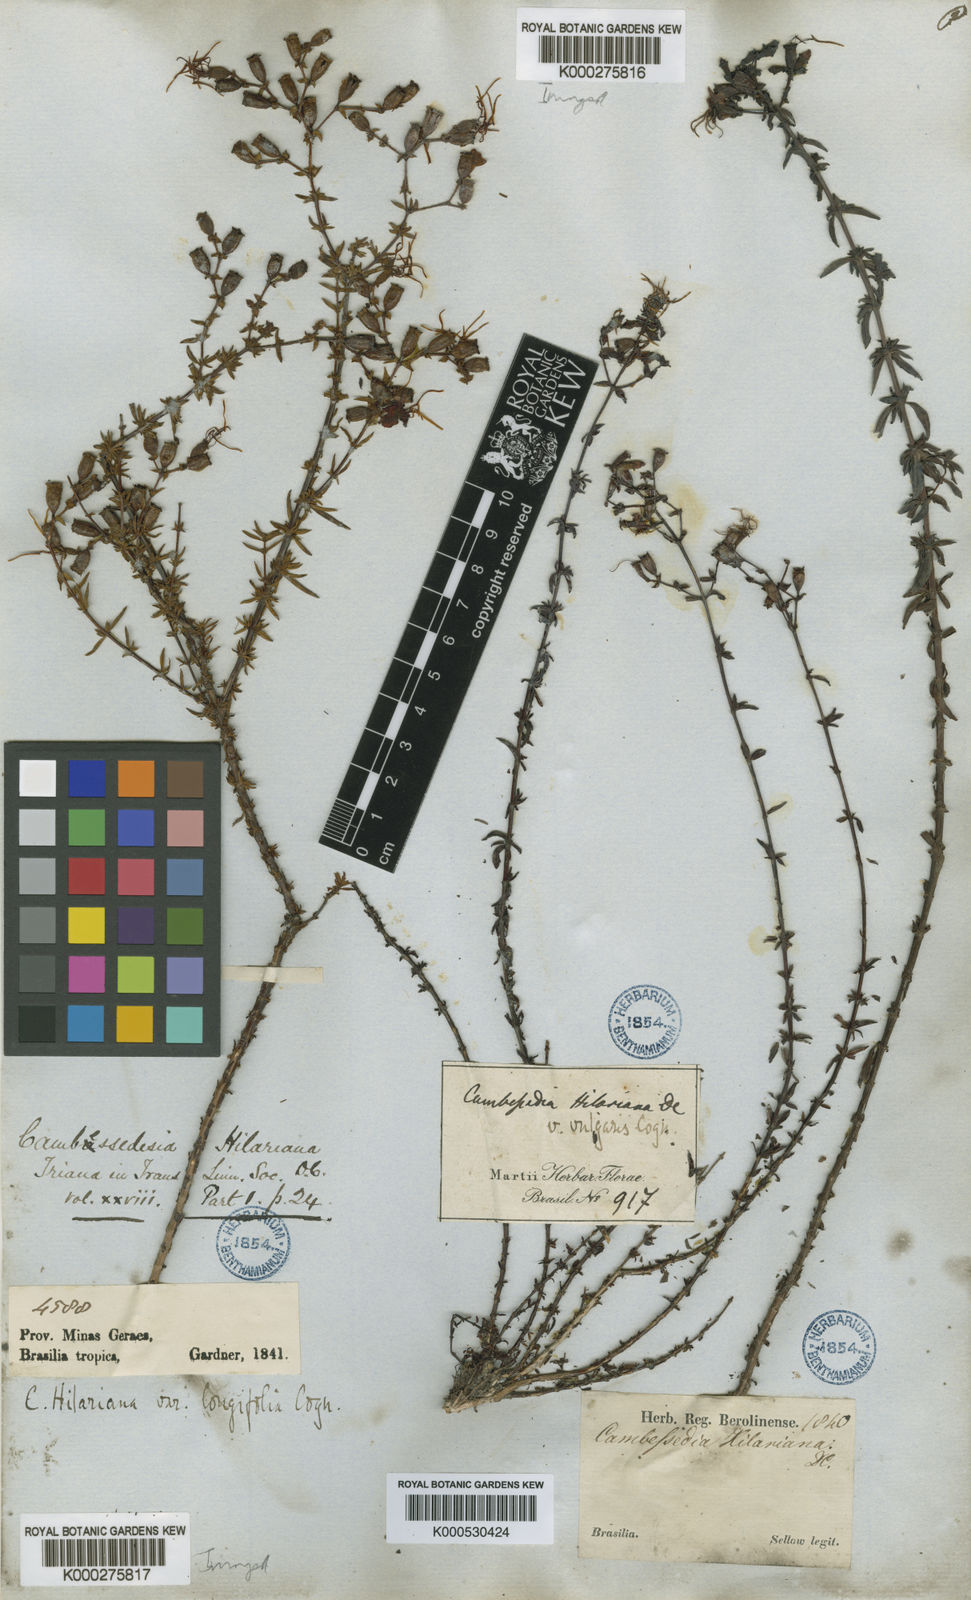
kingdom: Plantae
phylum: Tracheophyta
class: Magnoliopsida
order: Myrtales
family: Melastomataceae
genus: Cambessedesia
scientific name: Cambessedesia hilariana
